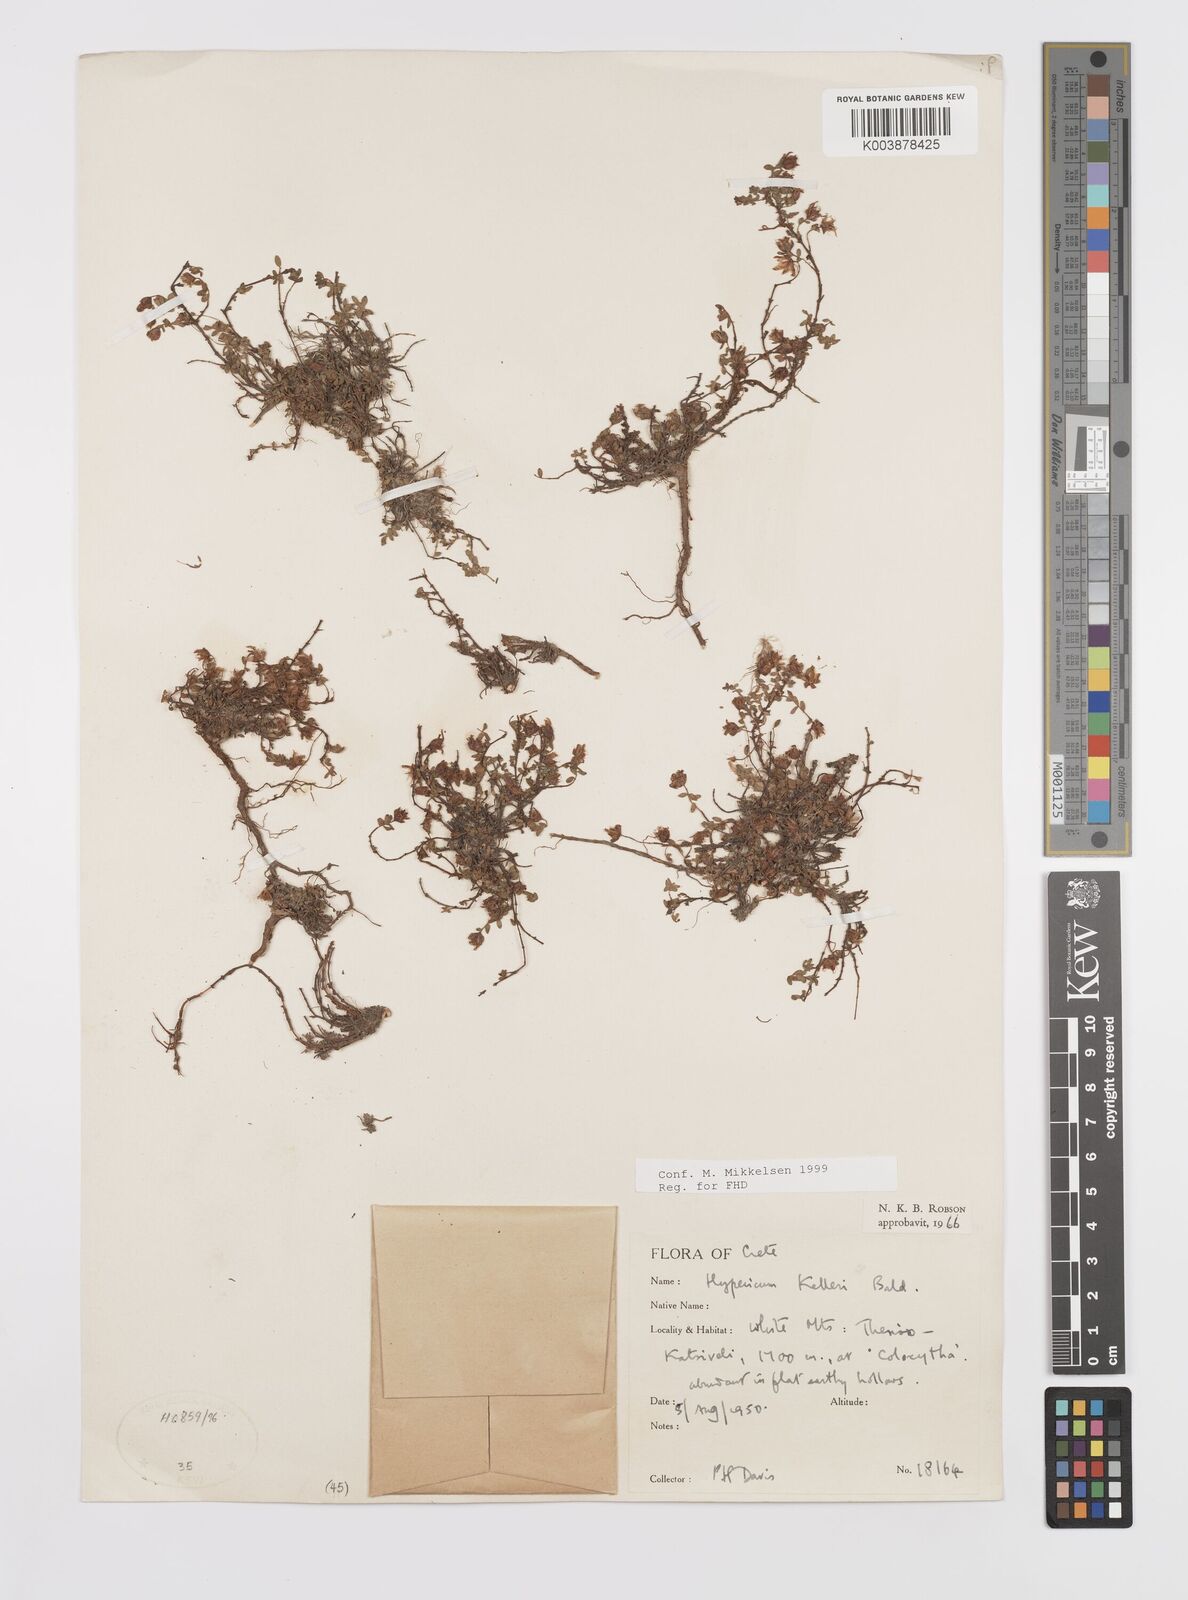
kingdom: Plantae
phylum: Tracheophyta
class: Magnoliopsida
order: Malpighiales
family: Hypericaceae
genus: Hypericum
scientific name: Hypericum kelleri
